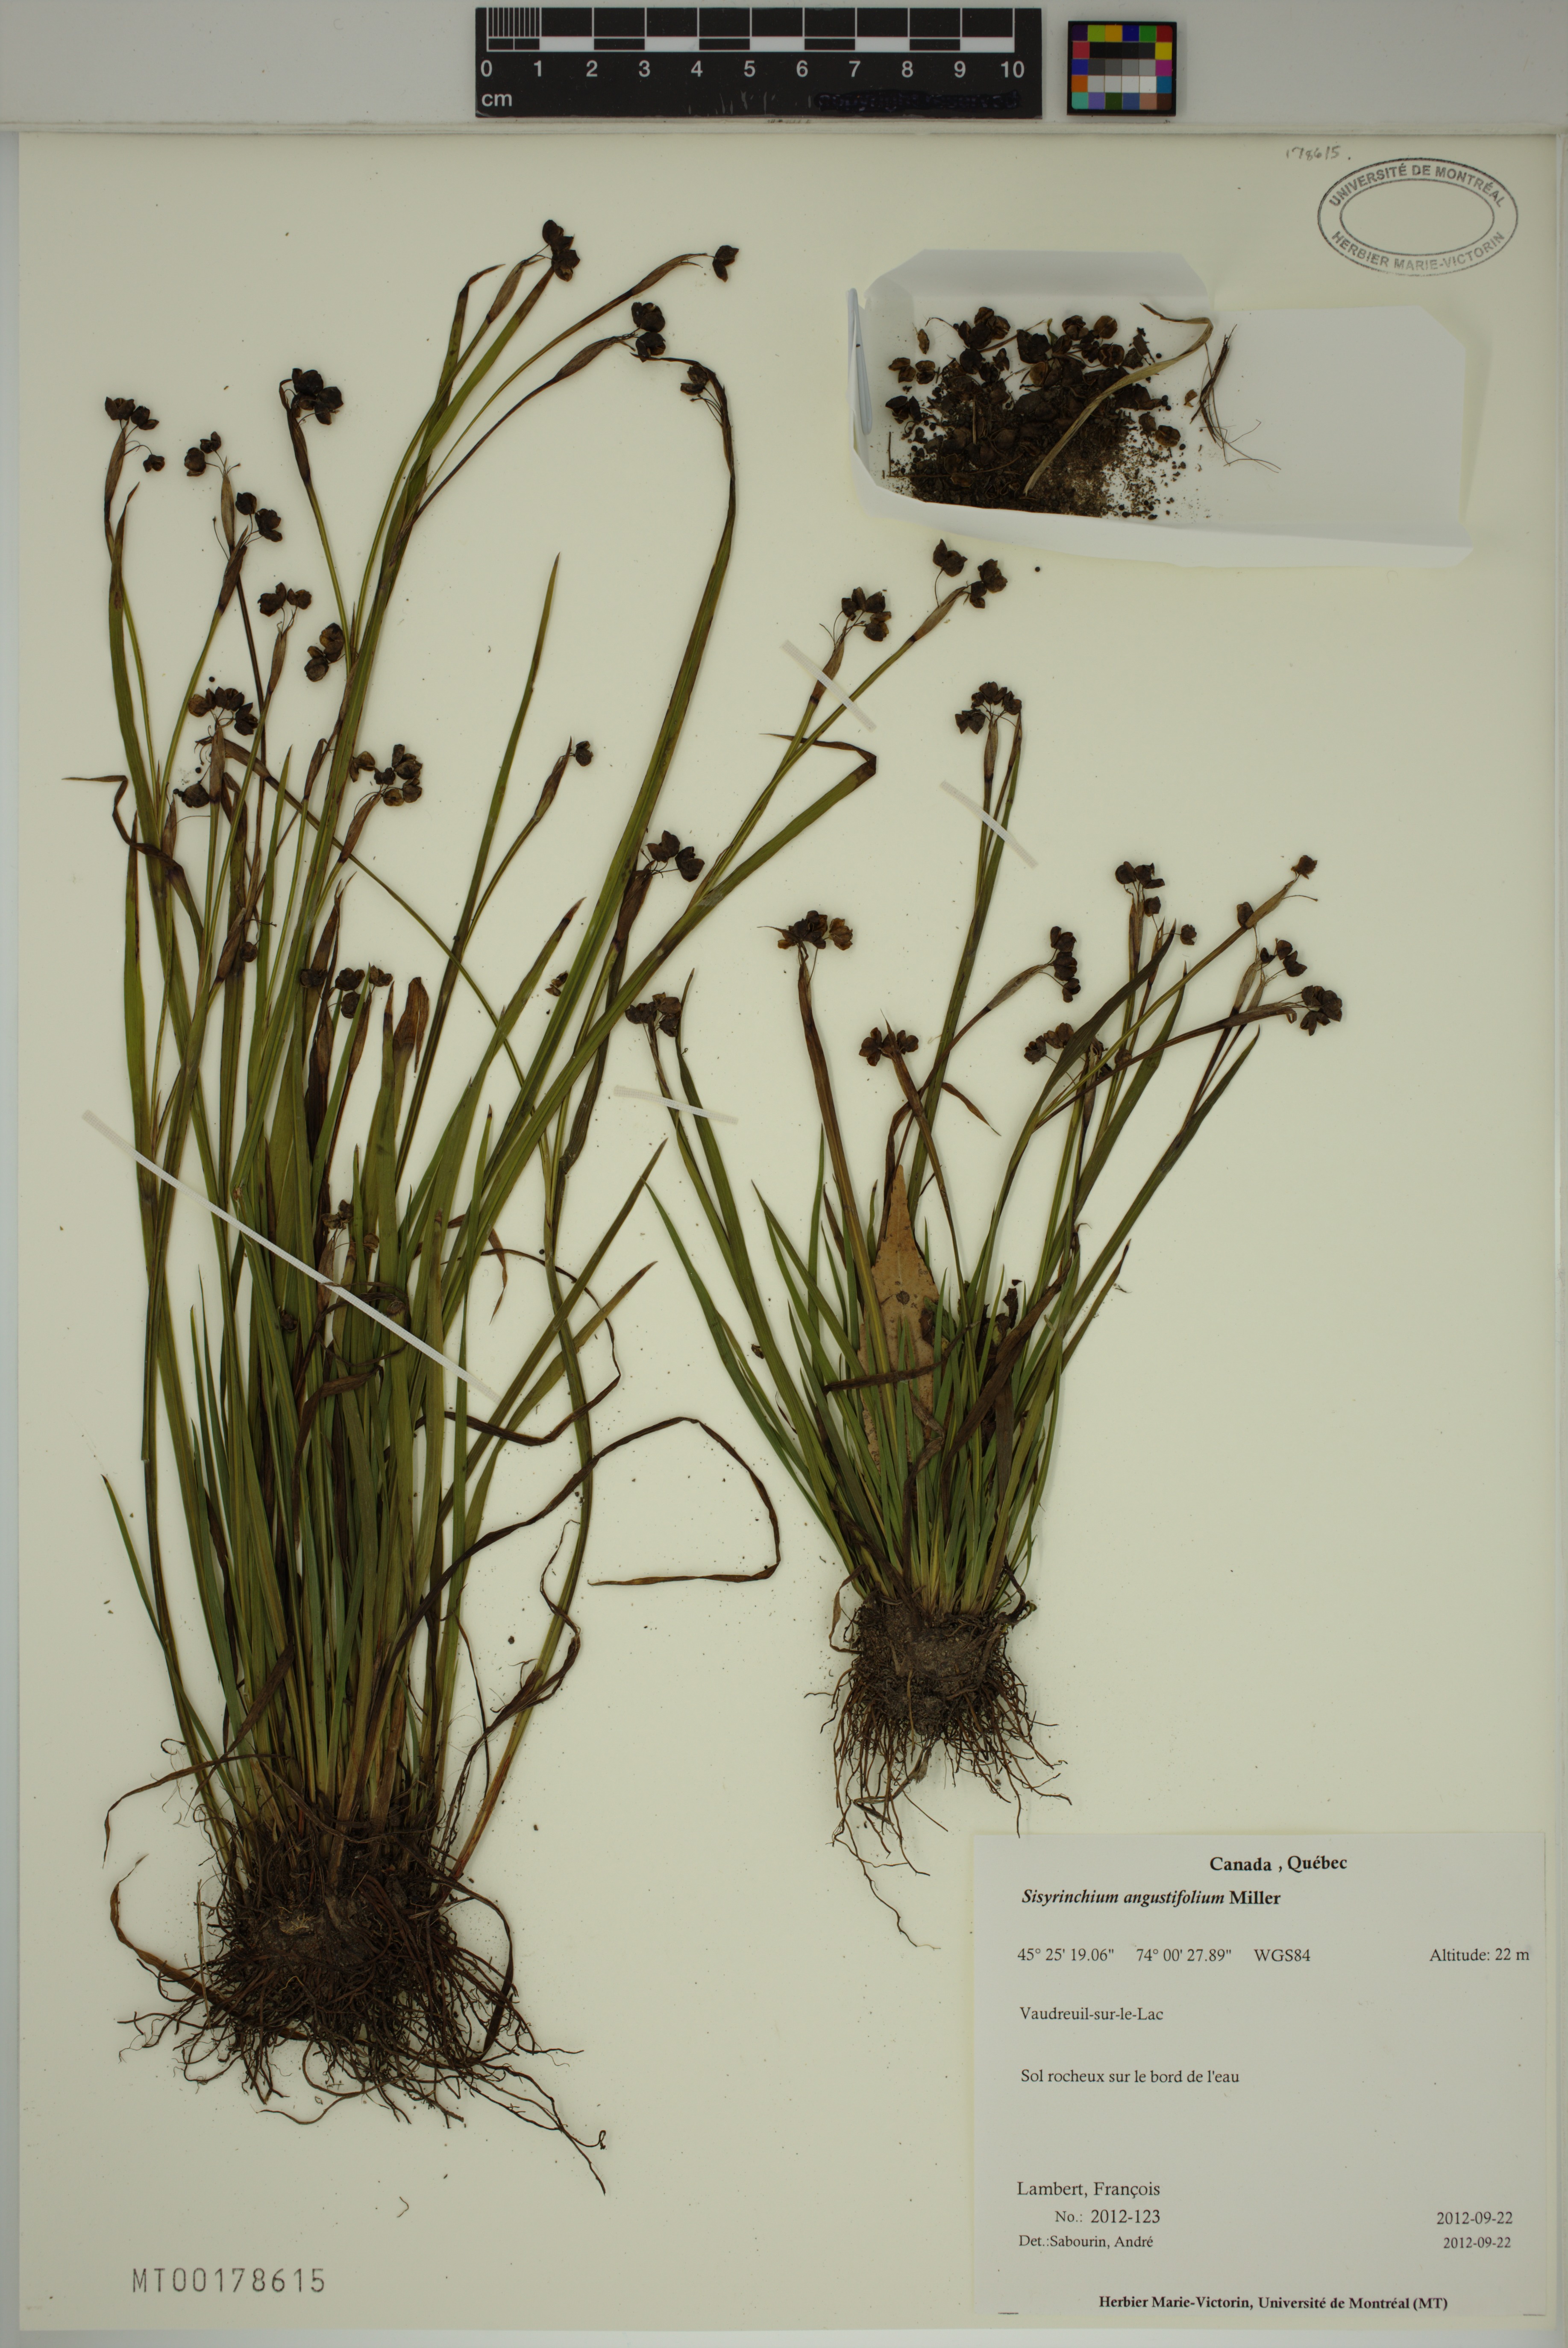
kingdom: Plantae
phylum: Tracheophyta
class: Liliopsida
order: Asparagales
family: Iridaceae
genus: Sisyrinchium
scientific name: Sisyrinchium angustifolium
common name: Narrow-leaf blue-eyed-grass
